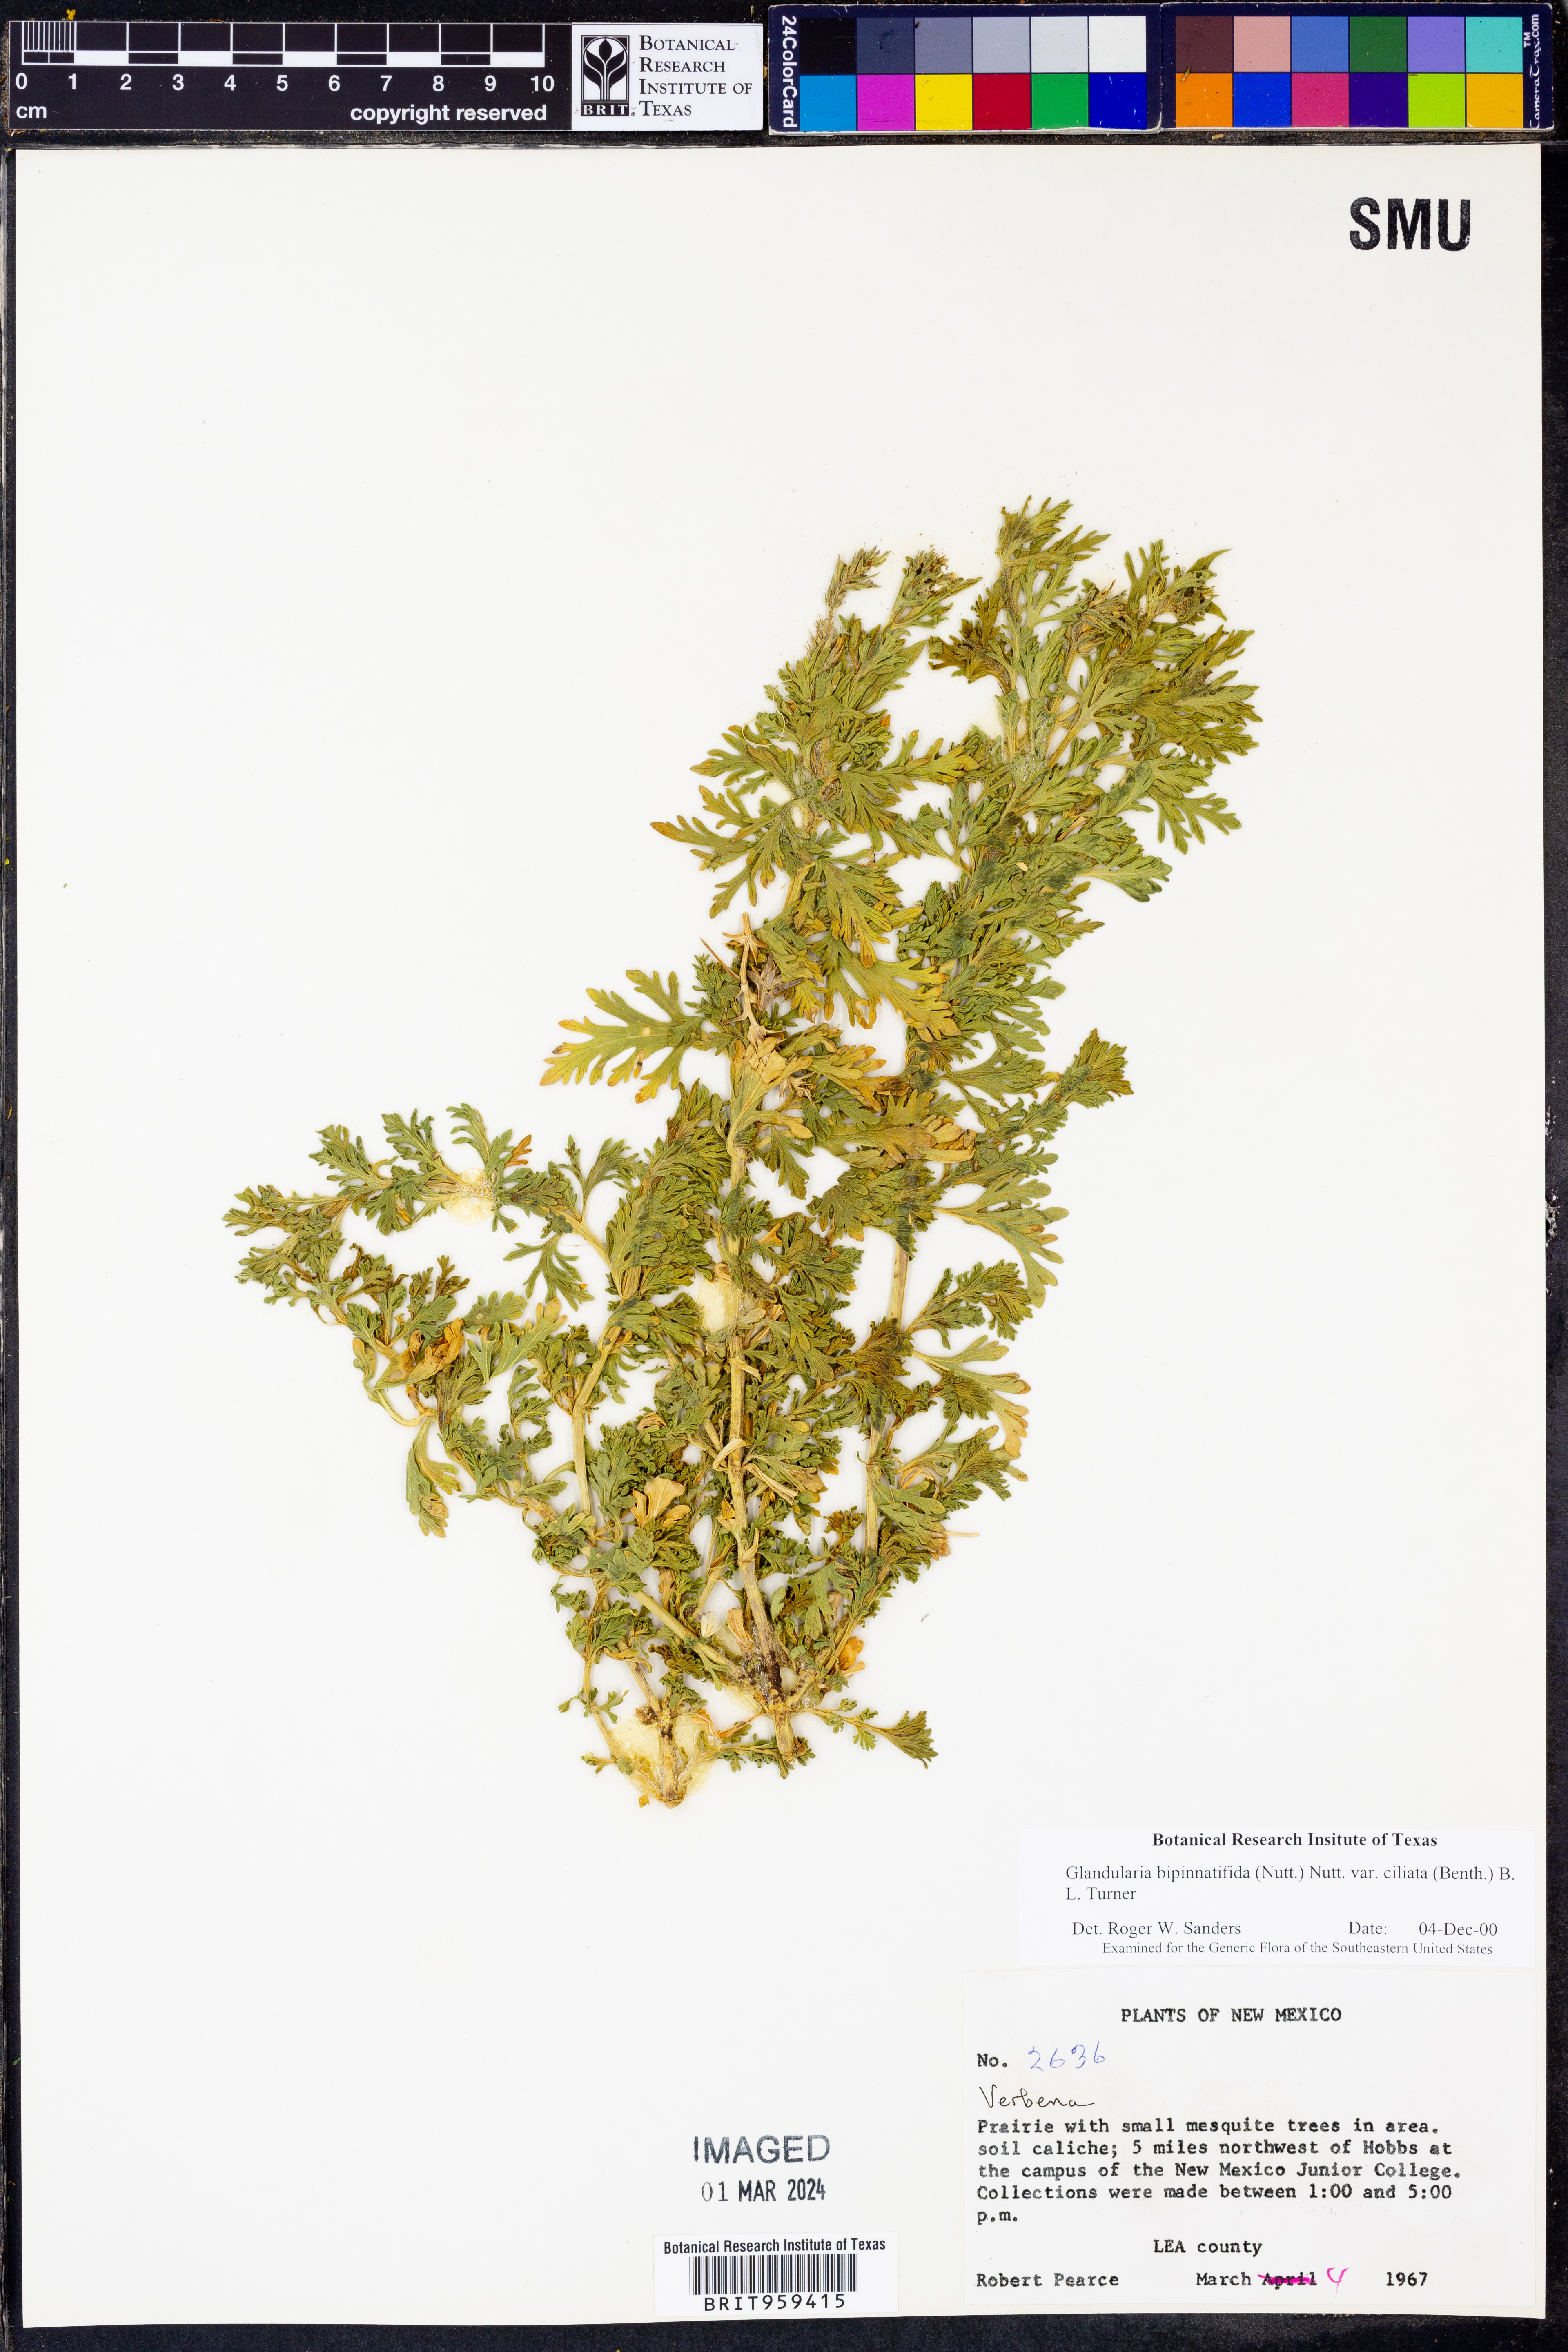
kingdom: Plantae
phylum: Tracheophyta
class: Magnoliopsida
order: Lamiales
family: Verbenaceae
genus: Verbena
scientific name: Verbena bipinnatifida
